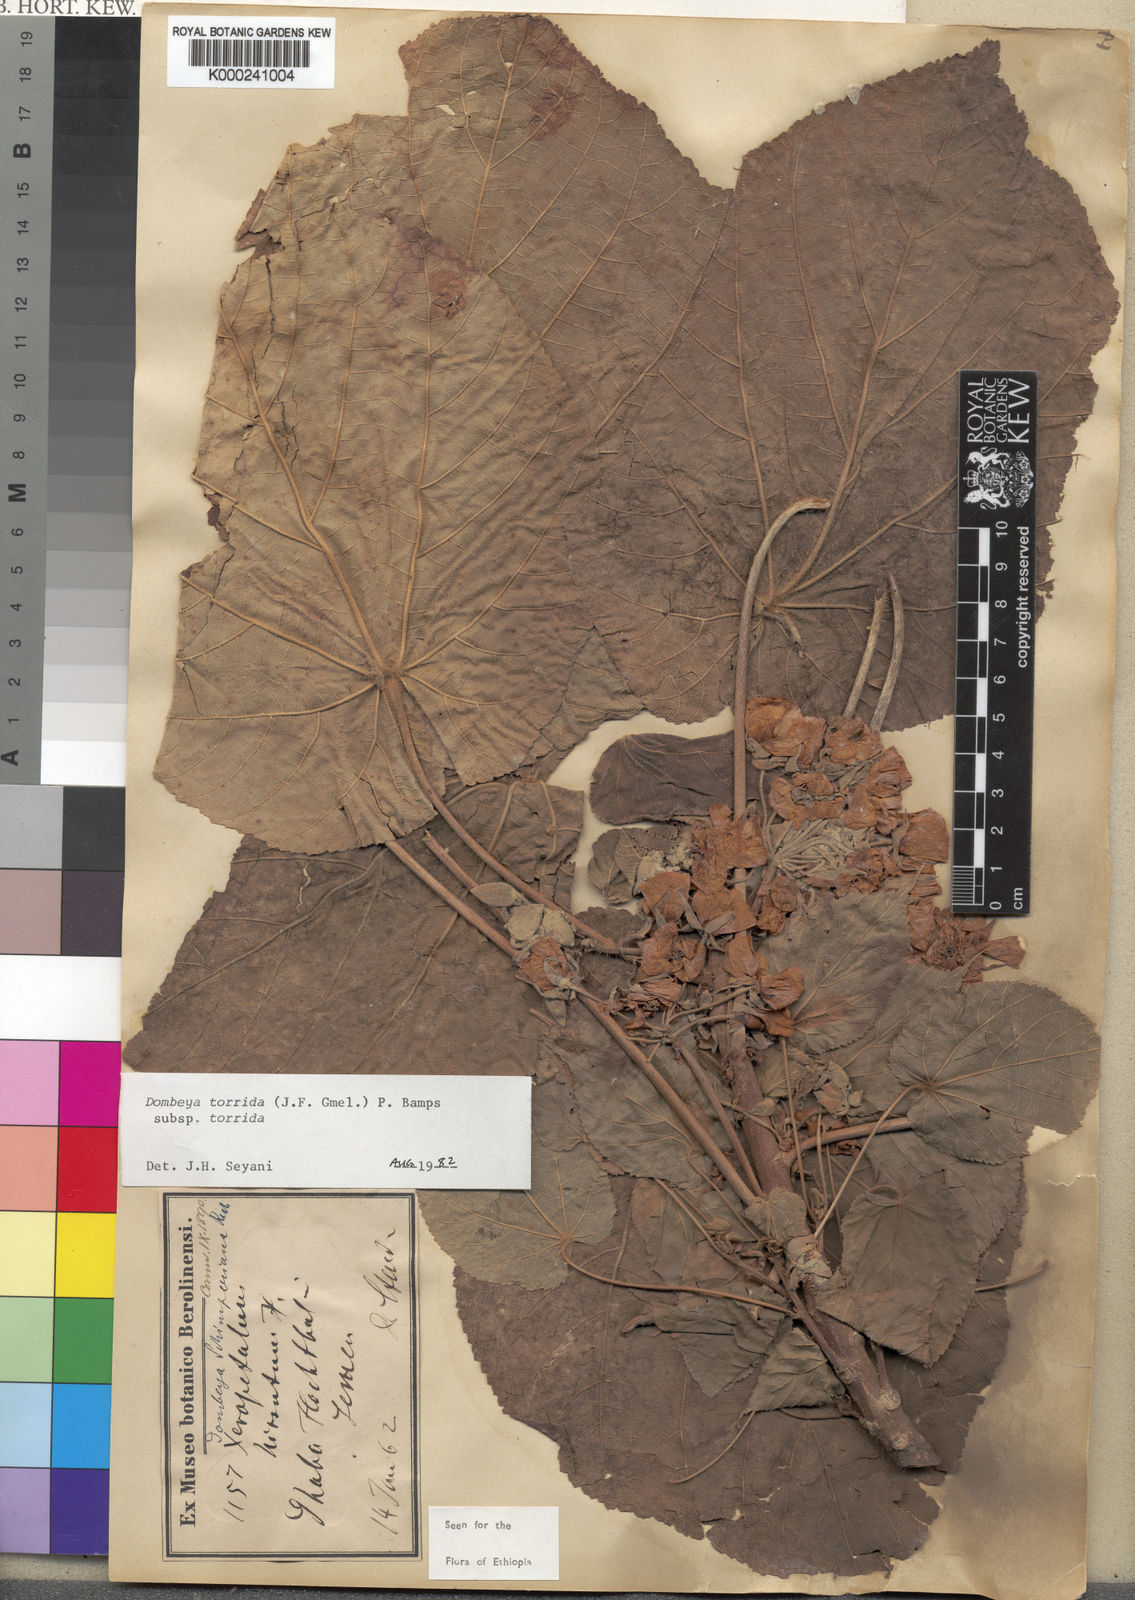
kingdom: Plantae
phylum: Tracheophyta
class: Magnoliopsida
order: Malvales
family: Malvaceae
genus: Dombeya
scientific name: Dombeya torrida
